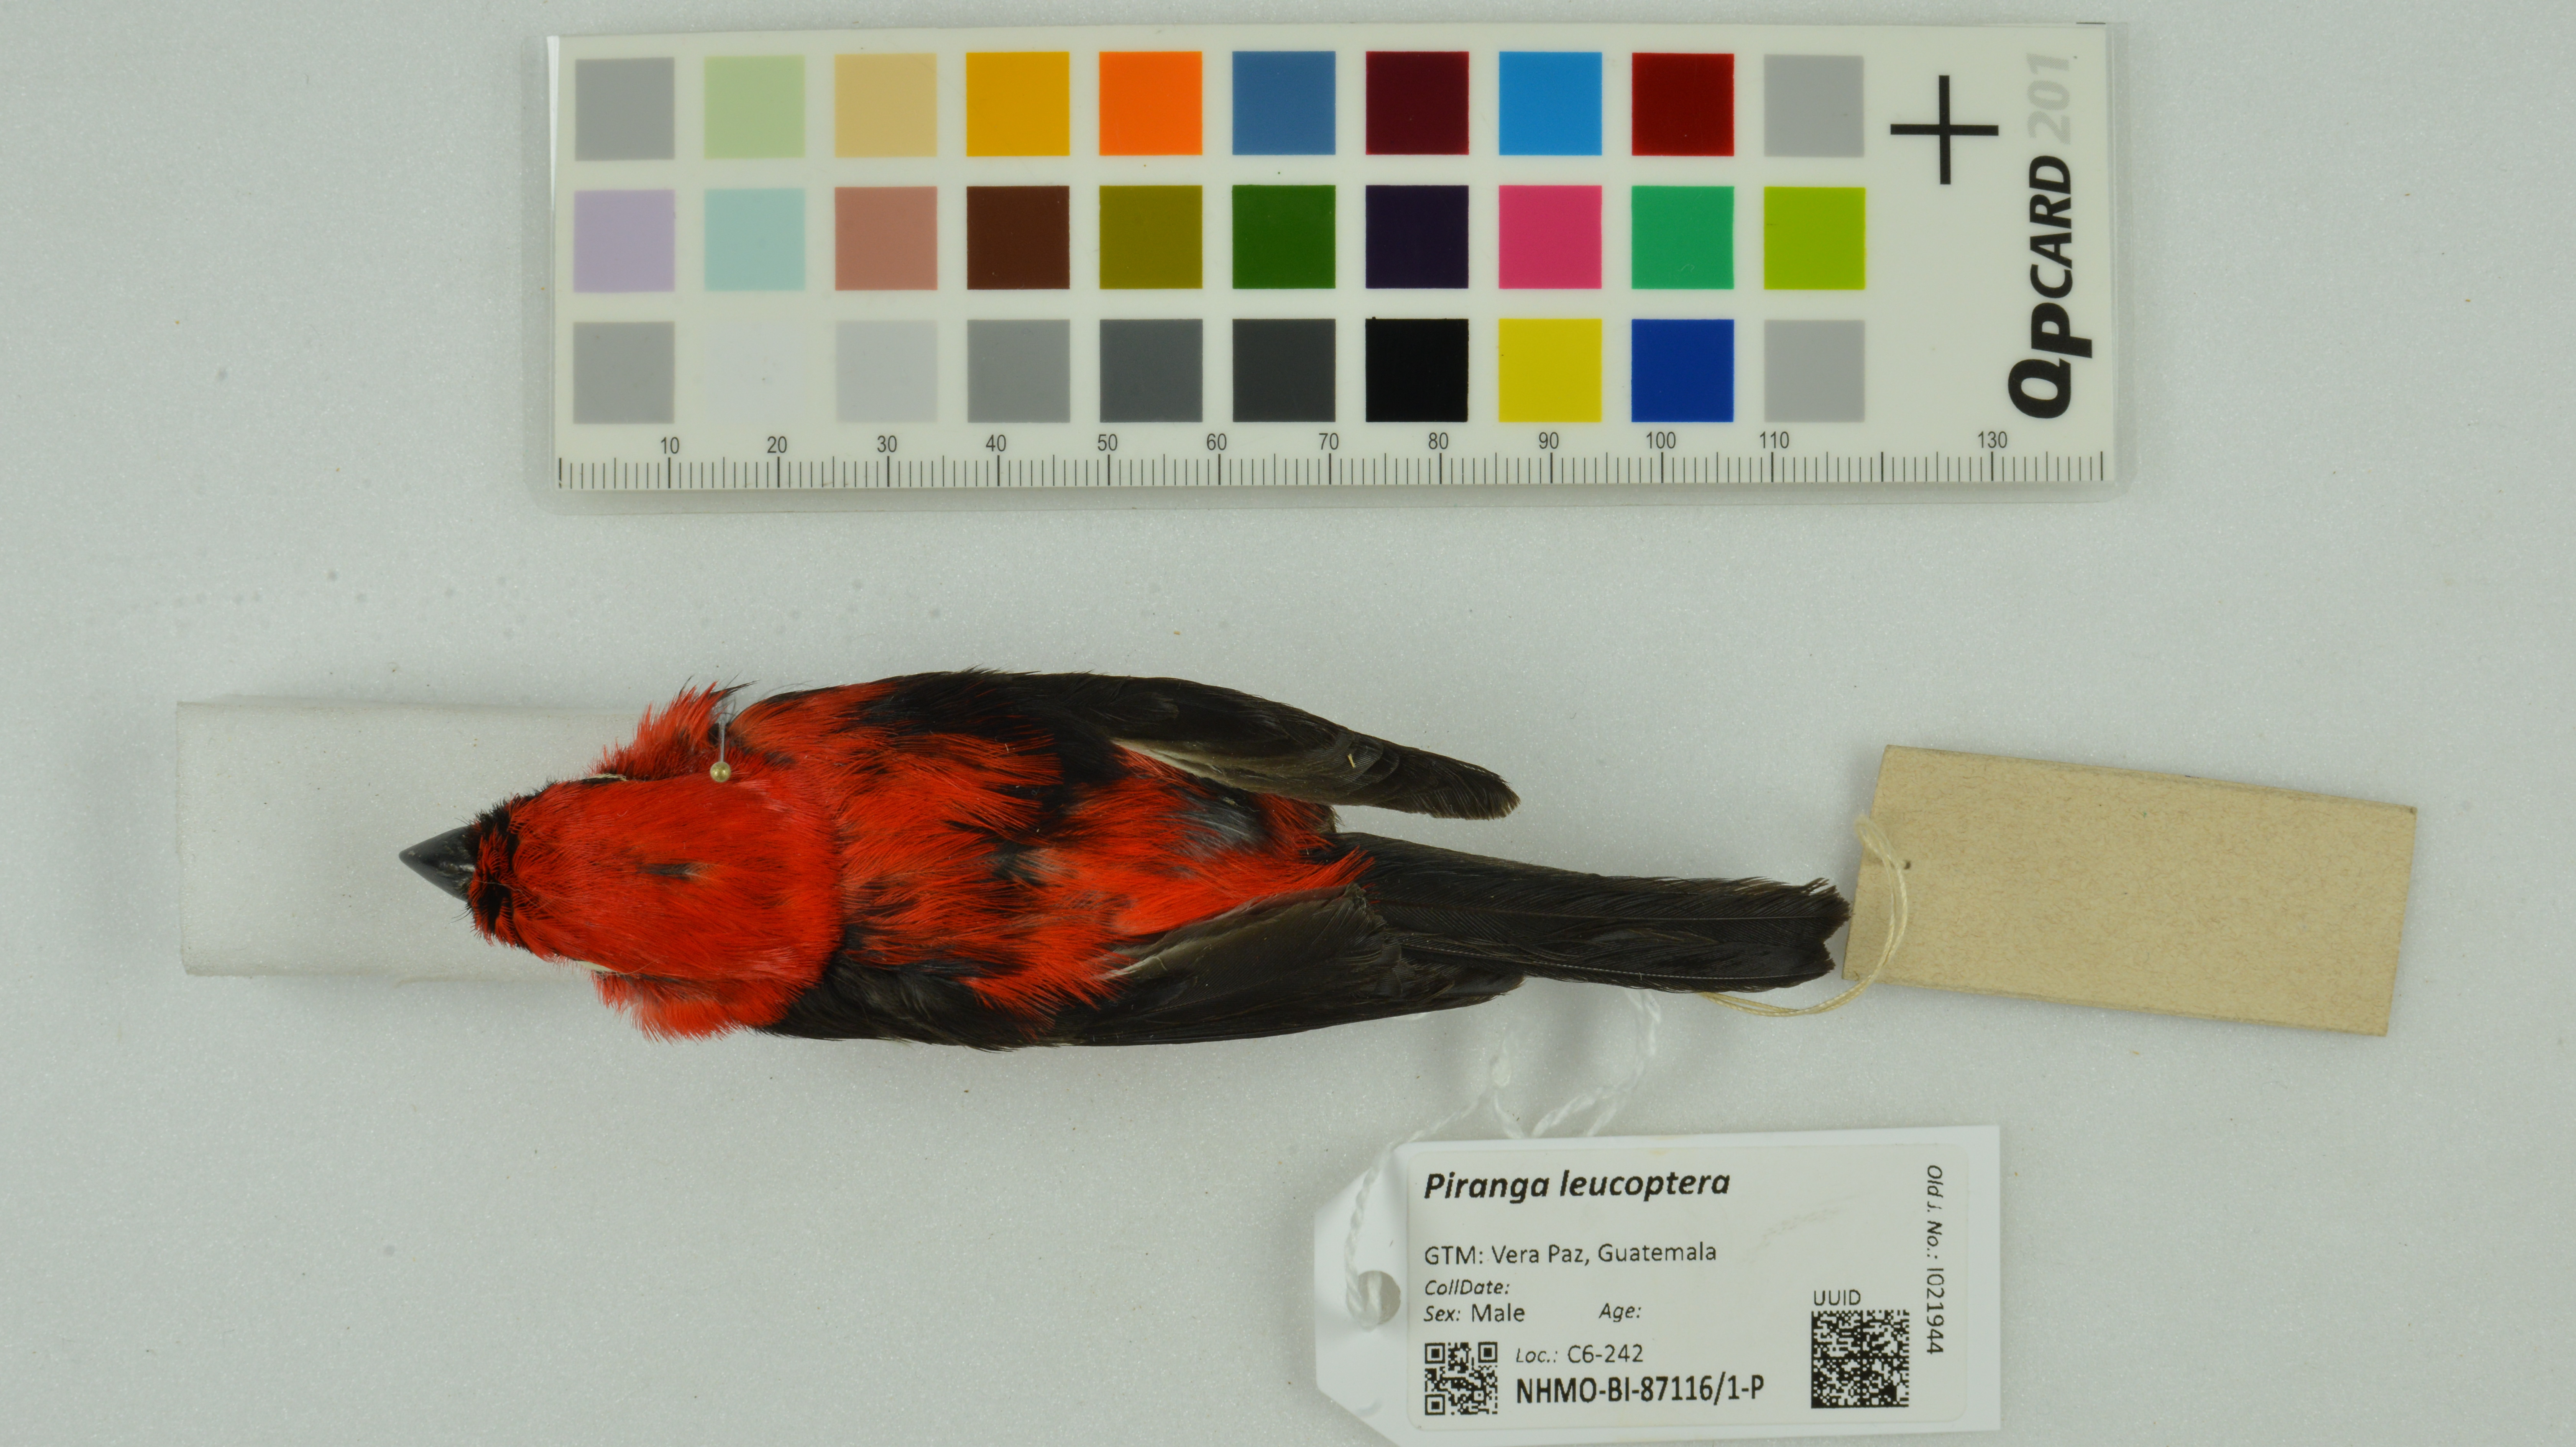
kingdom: Animalia
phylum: Chordata
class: Aves
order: Passeriformes
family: Cardinalidae
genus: Piranga
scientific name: Piranga leucoptera
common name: White-winged tanager
